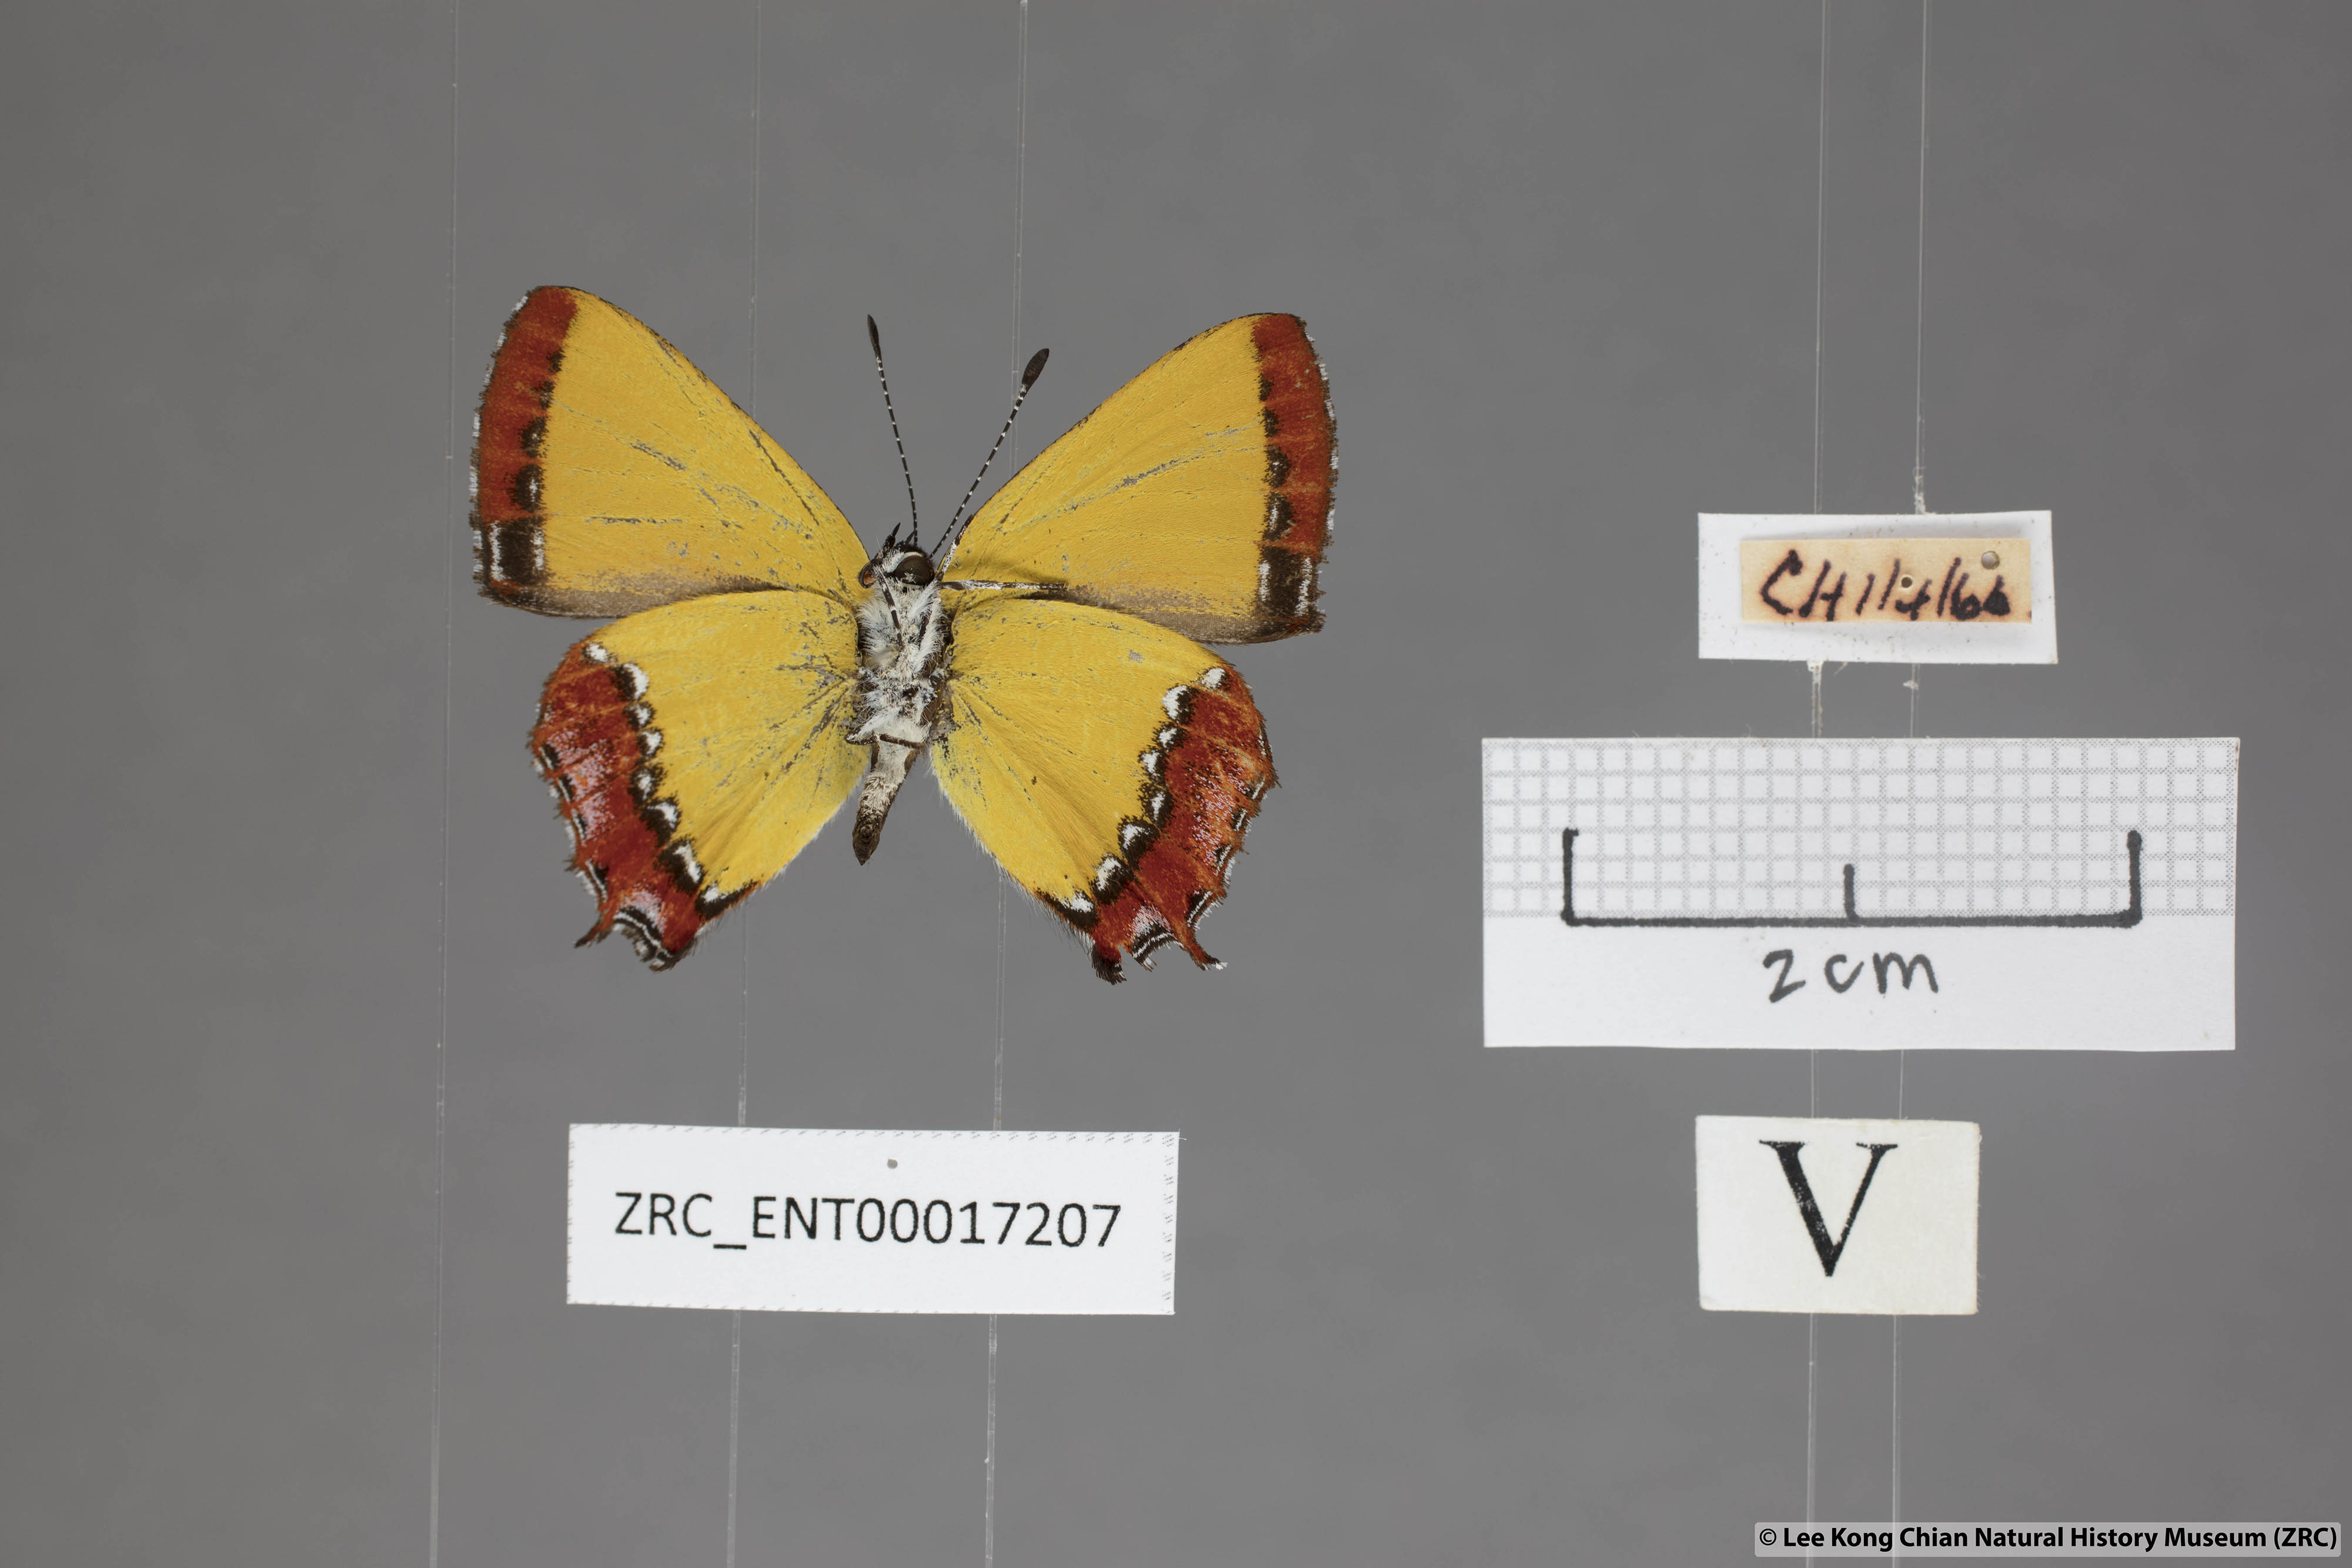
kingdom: Animalia
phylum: Arthropoda
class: Insecta
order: Lepidoptera
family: Lycaenidae
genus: Heliophorus
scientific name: Heliophorus ila
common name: Restricted purple sapphire
